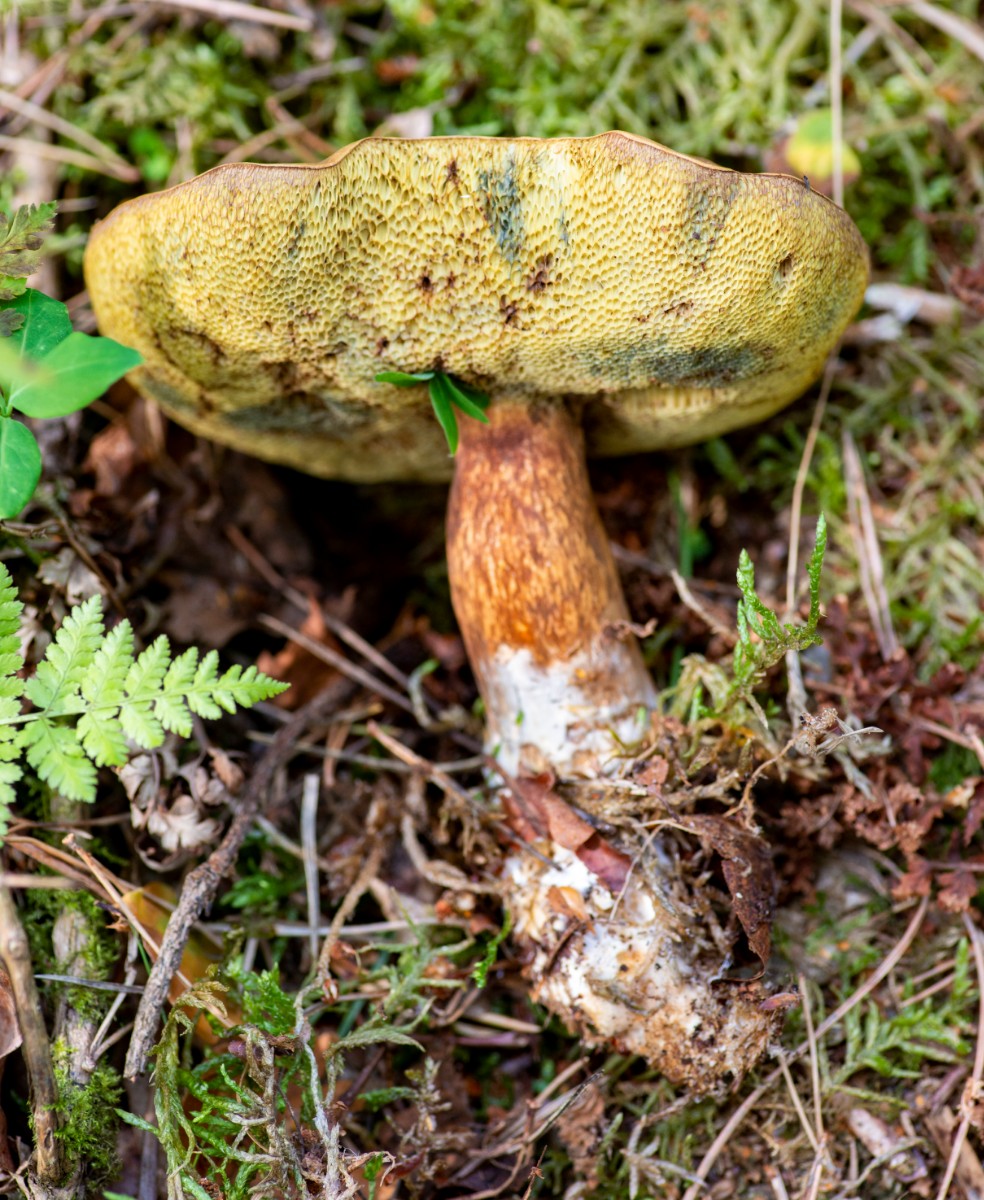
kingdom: Fungi
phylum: Basidiomycota
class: Agaricomycetes
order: Boletales
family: Boletaceae
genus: Imleria
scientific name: Imleria badia
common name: brunstokket rørhat
